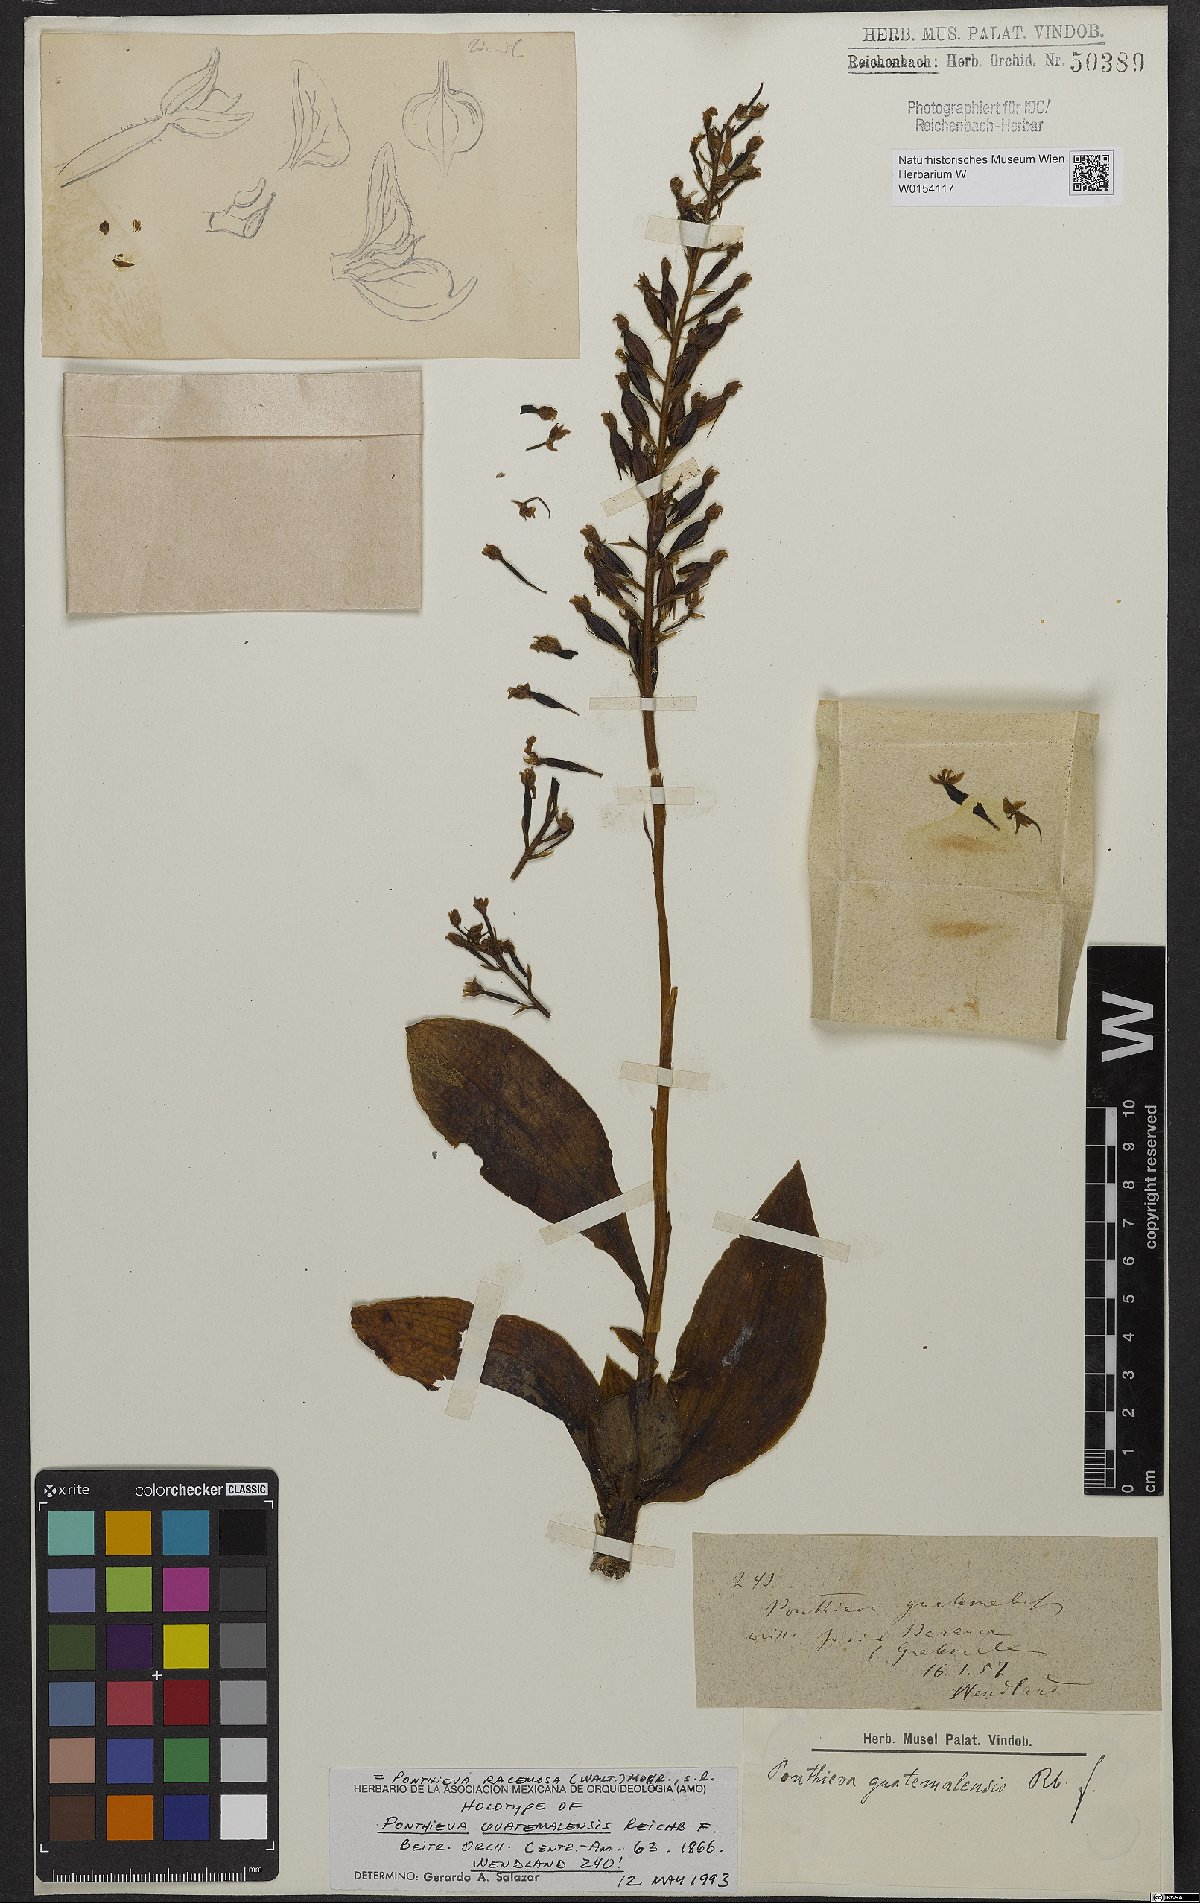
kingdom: Plantae
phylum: Tracheophyta
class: Liliopsida
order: Asparagales
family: Orchidaceae
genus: Ponthieva
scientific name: Ponthieva racemosa
